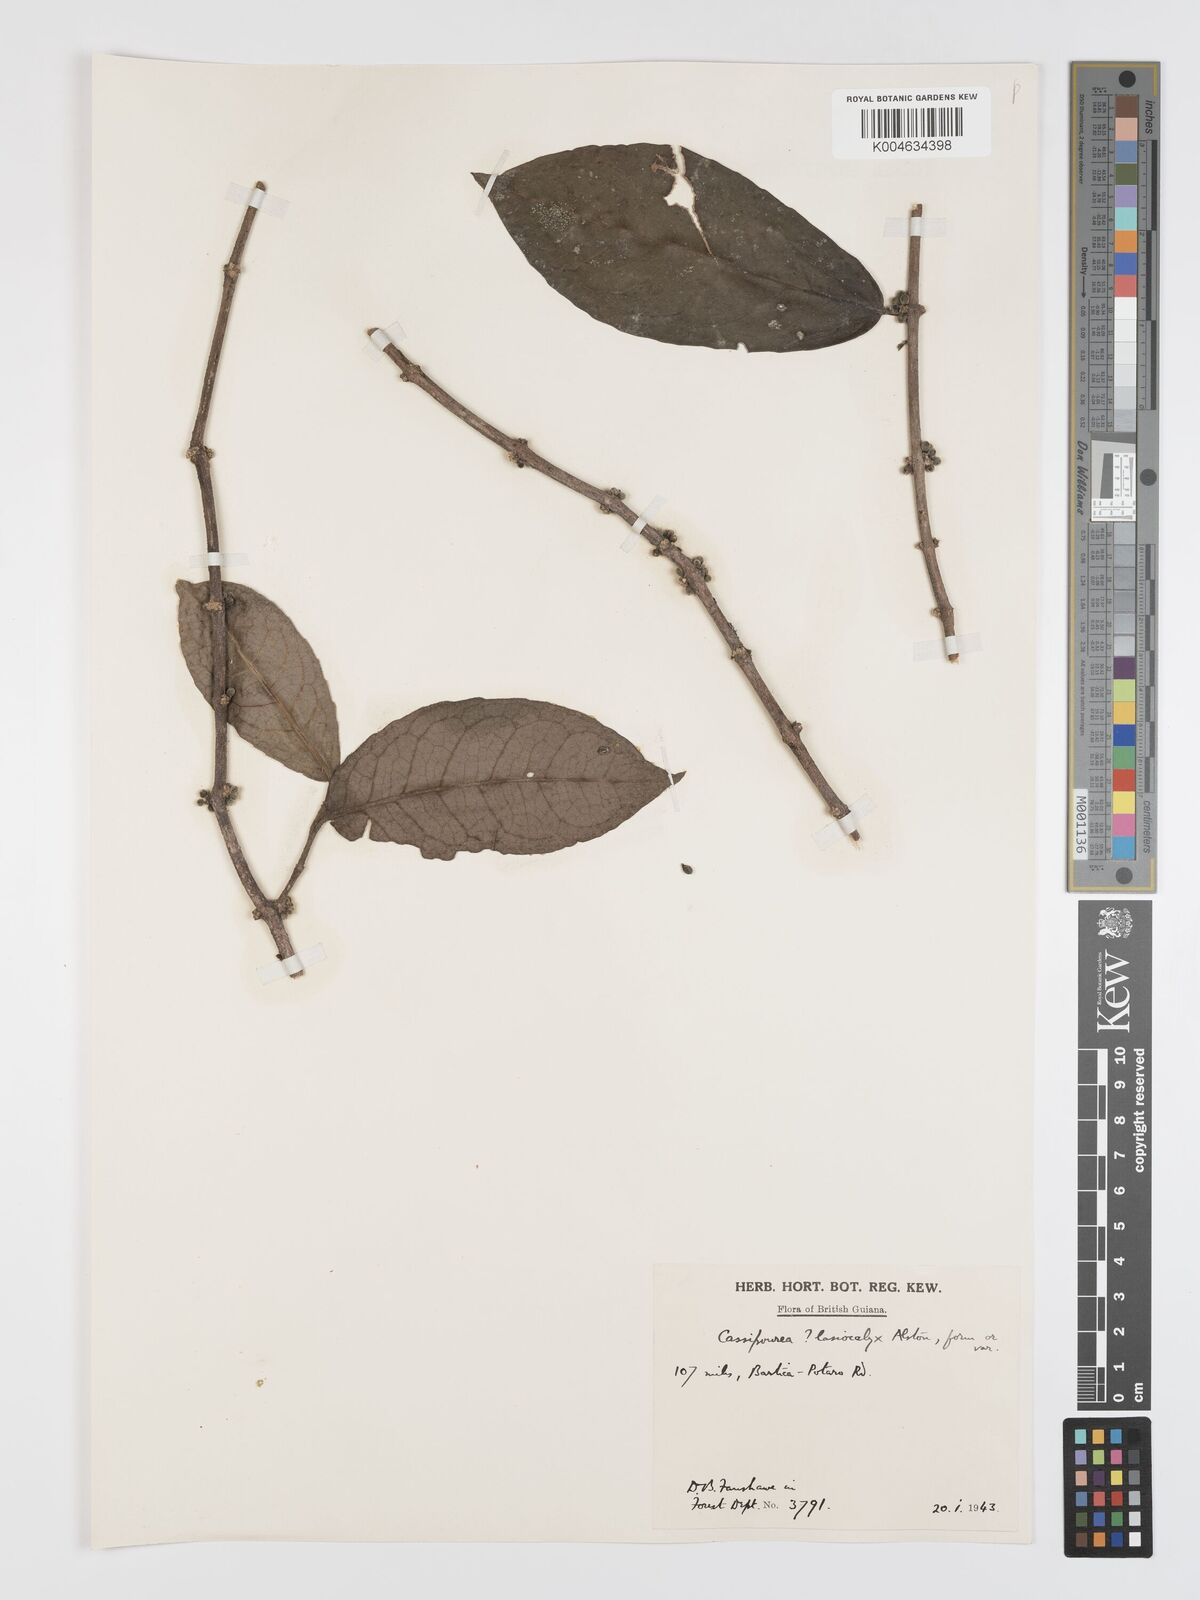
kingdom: Plantae
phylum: Tracheophyta
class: Magnoliopsida
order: Malpighiales
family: Rhizophoraceae
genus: Cassipourea
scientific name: Cassipourea lasiocalyx
